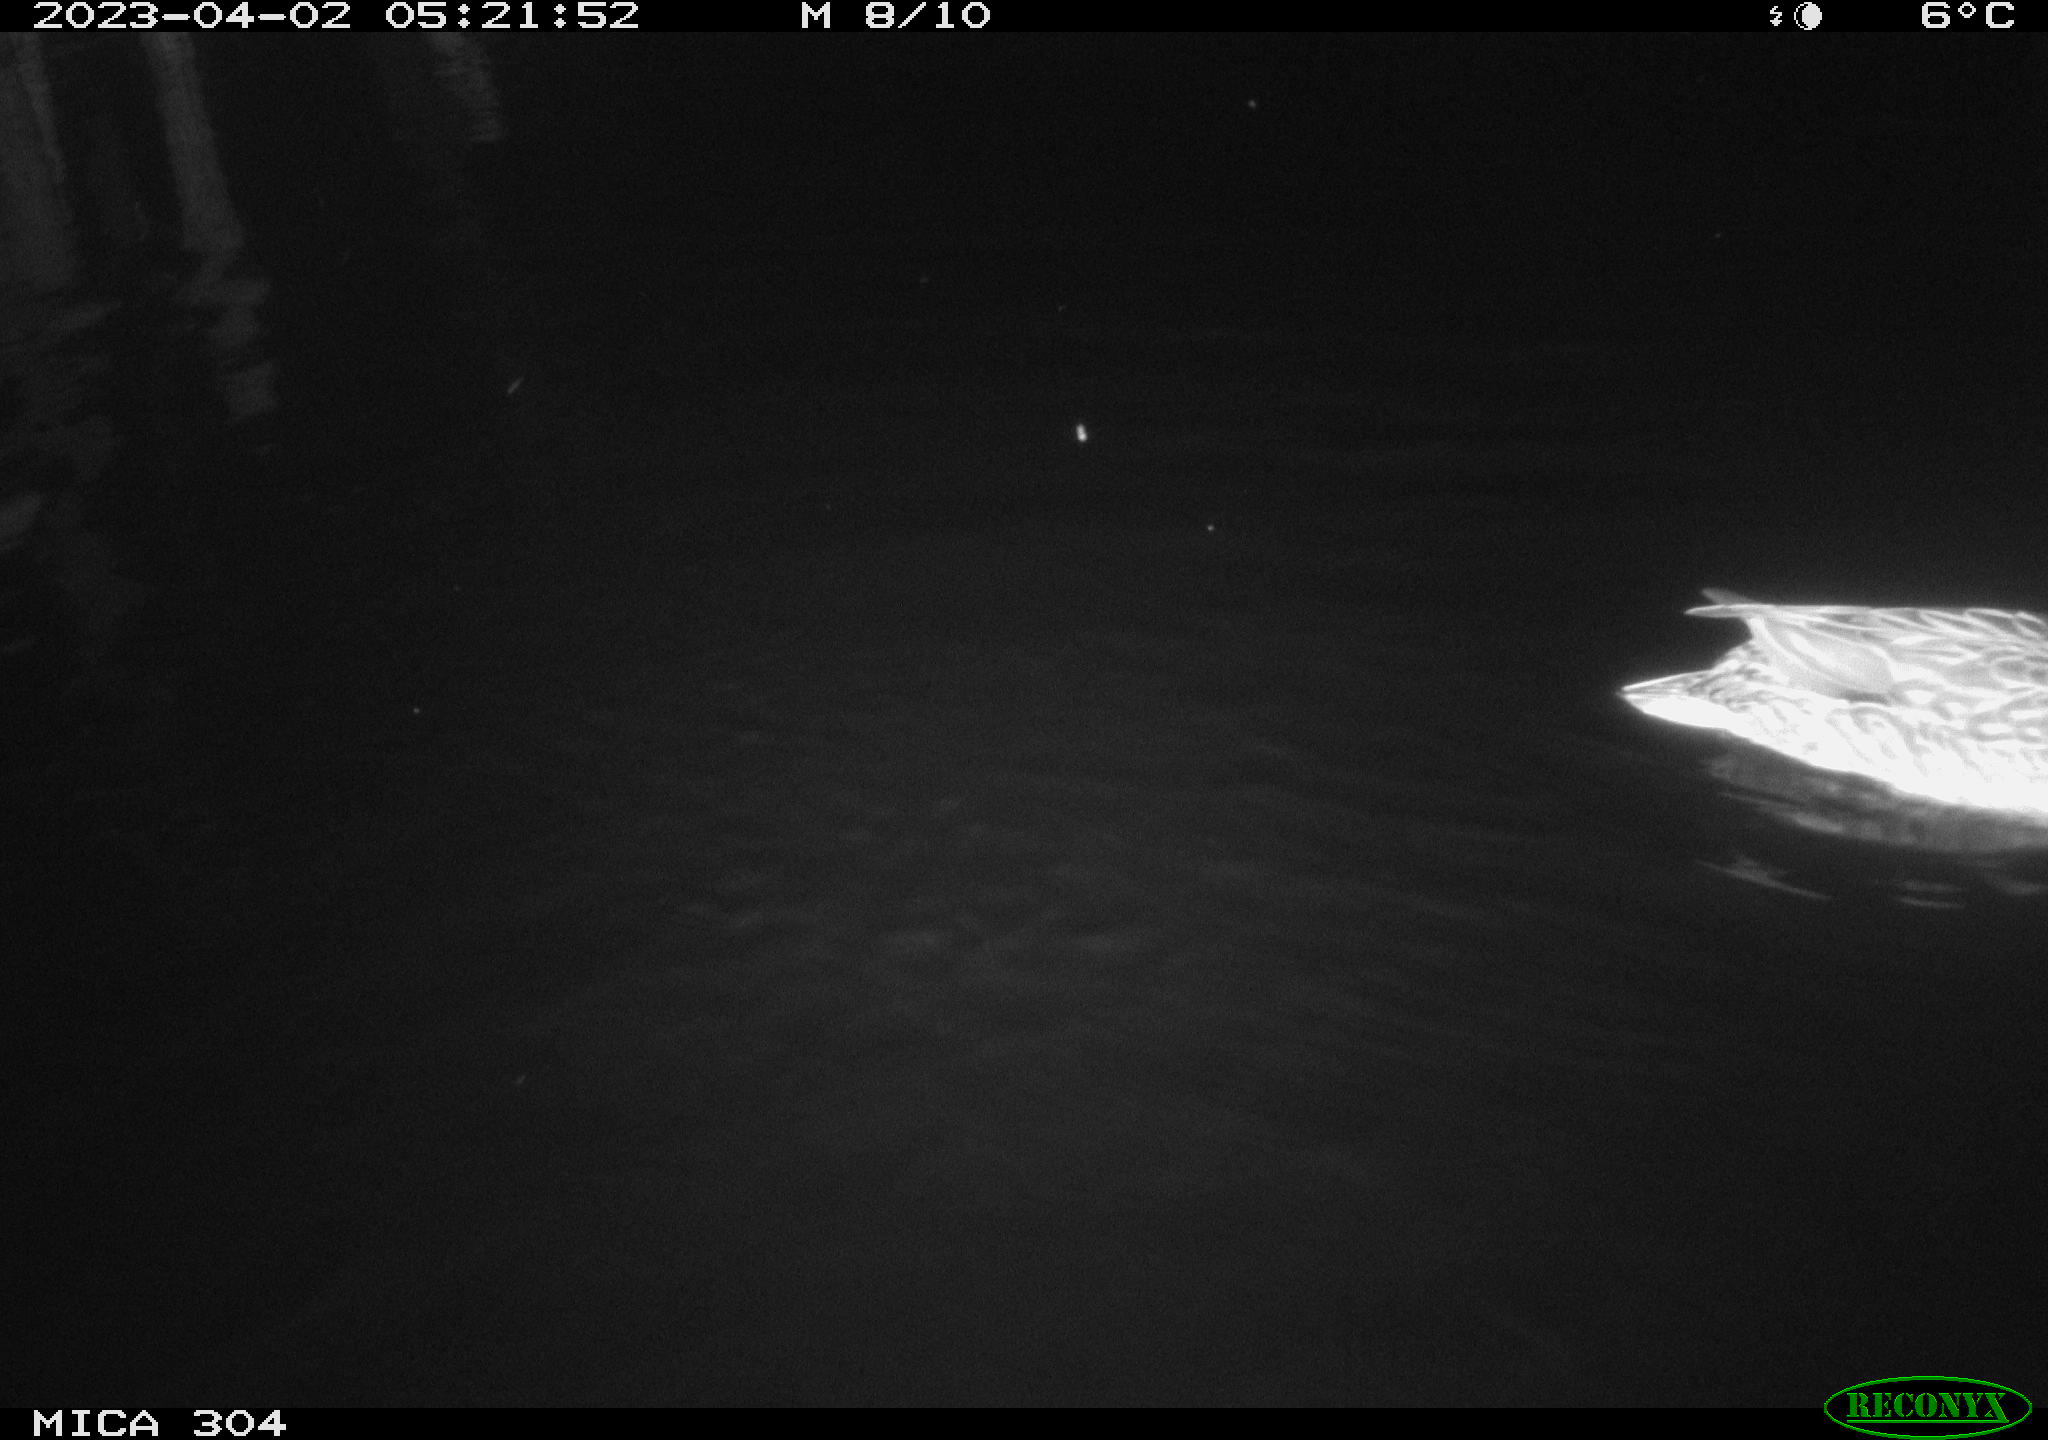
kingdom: Animalia
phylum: Chordata
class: Aves
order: Anseriformes
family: Anatidae
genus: Anas
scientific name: Anas
